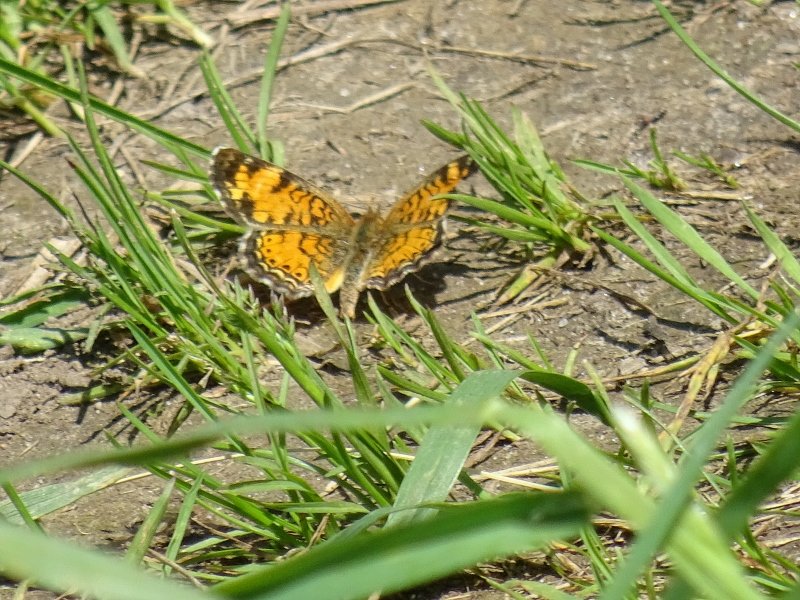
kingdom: Animalia
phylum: Arthropoda
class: Insecta
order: Lepidoptera
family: Nymphalidae
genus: Phyciodes
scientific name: Phyciodes
